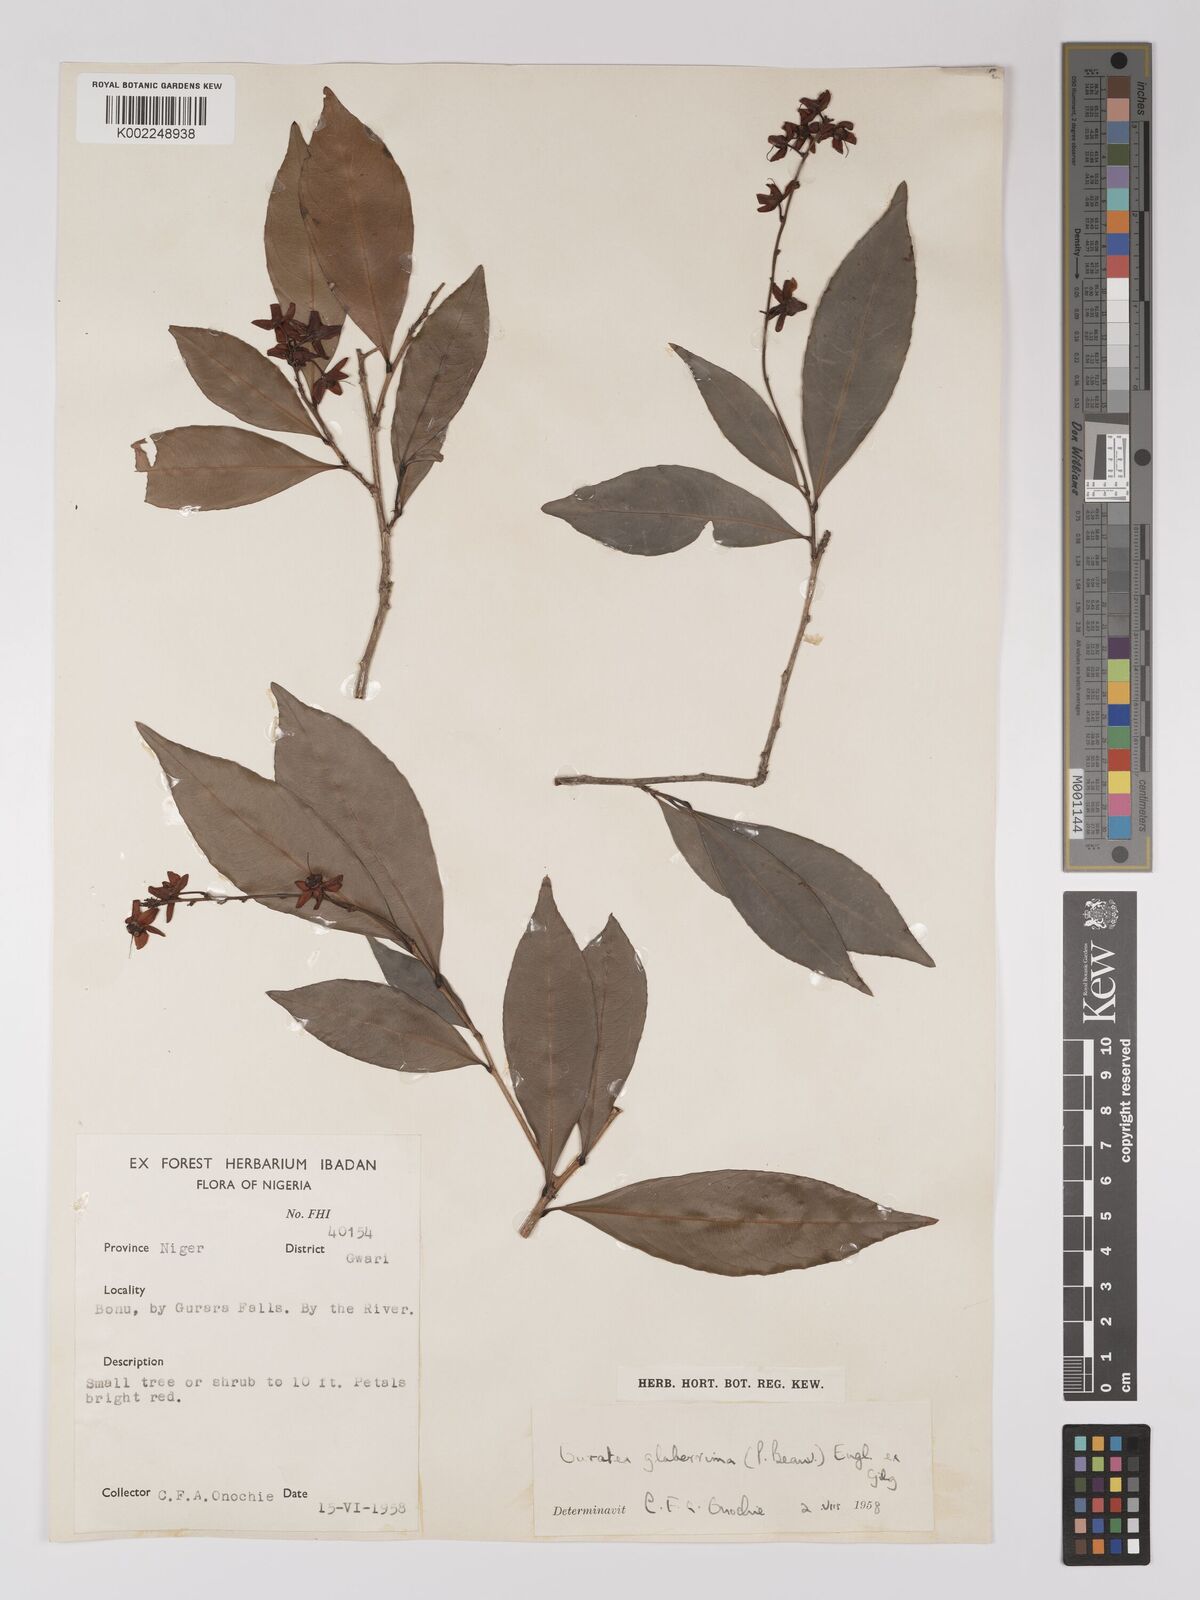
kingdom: Plantae
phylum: Tracheophyta
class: Magnoliopsida
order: Malpighiales
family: Ochnaceae
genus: Campylospermum
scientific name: Campylospermum glaberrimum
